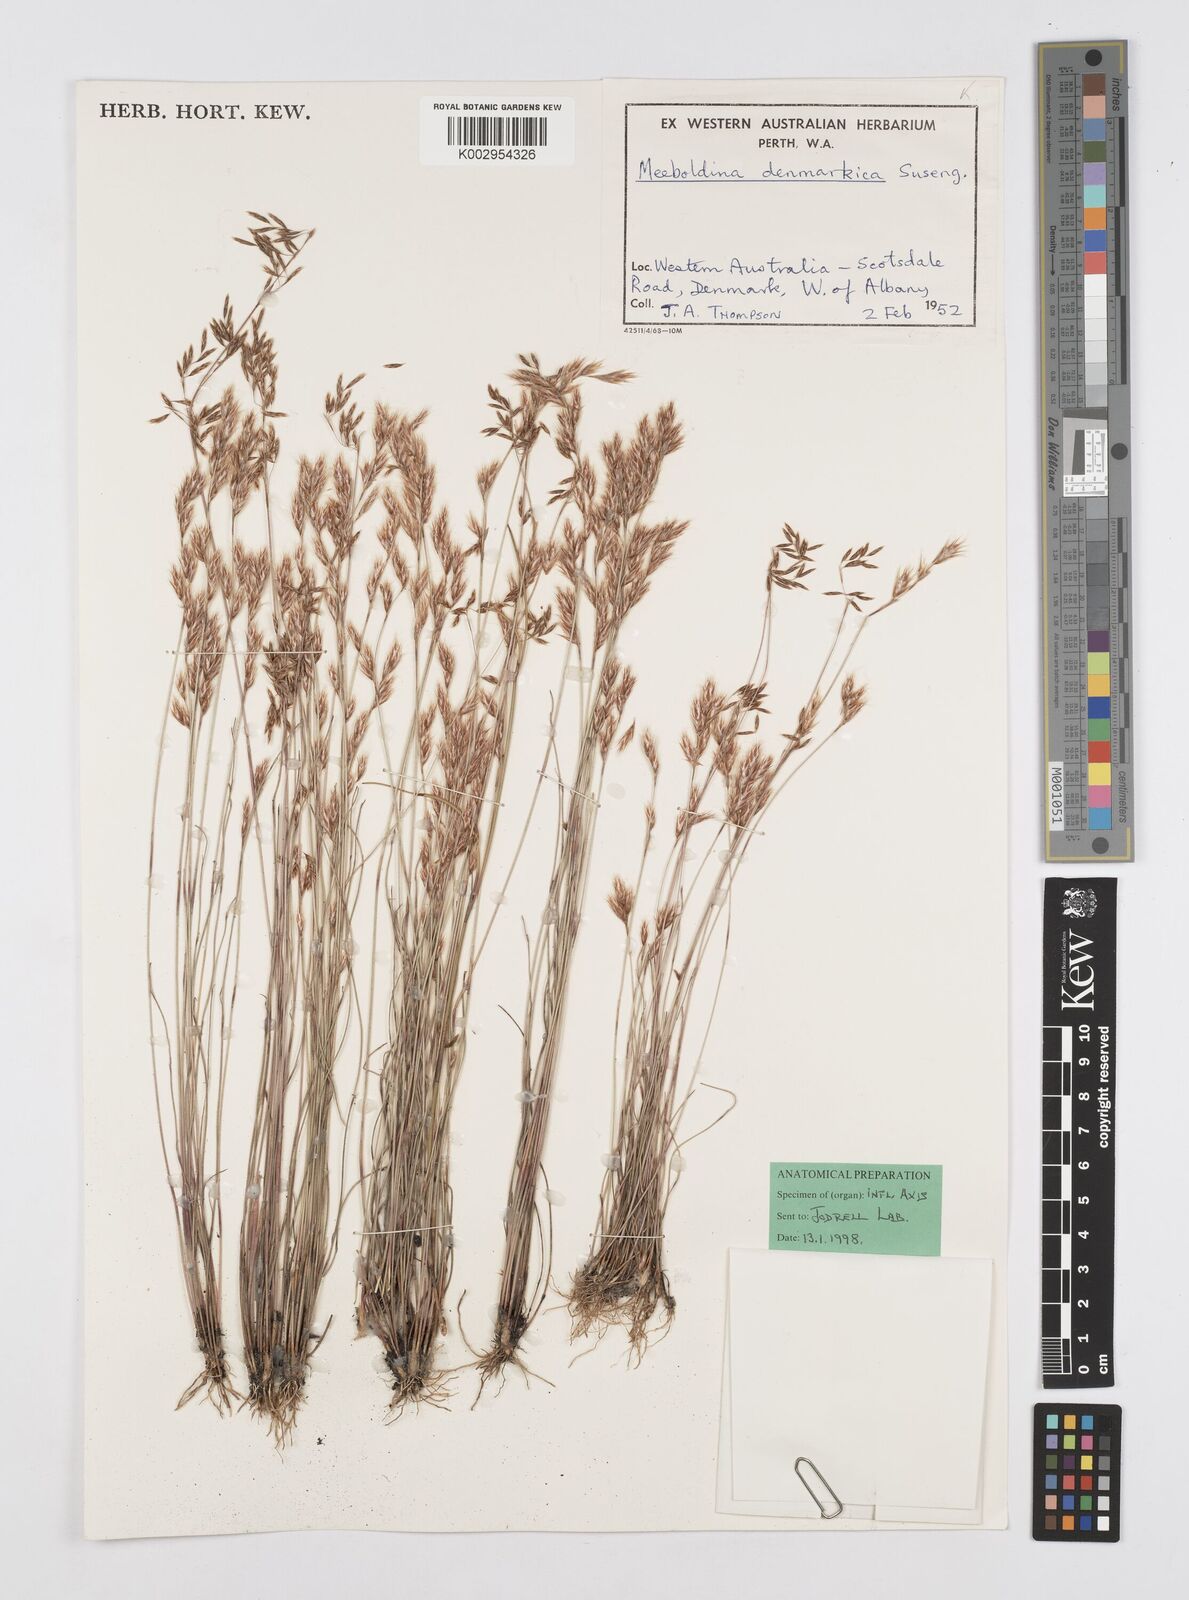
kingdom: Plantae
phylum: Tracheophyta
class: Liliopsida
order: Poales
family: Restionaceae
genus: Leptocarpus
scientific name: Leptocarpus denmarkicus
